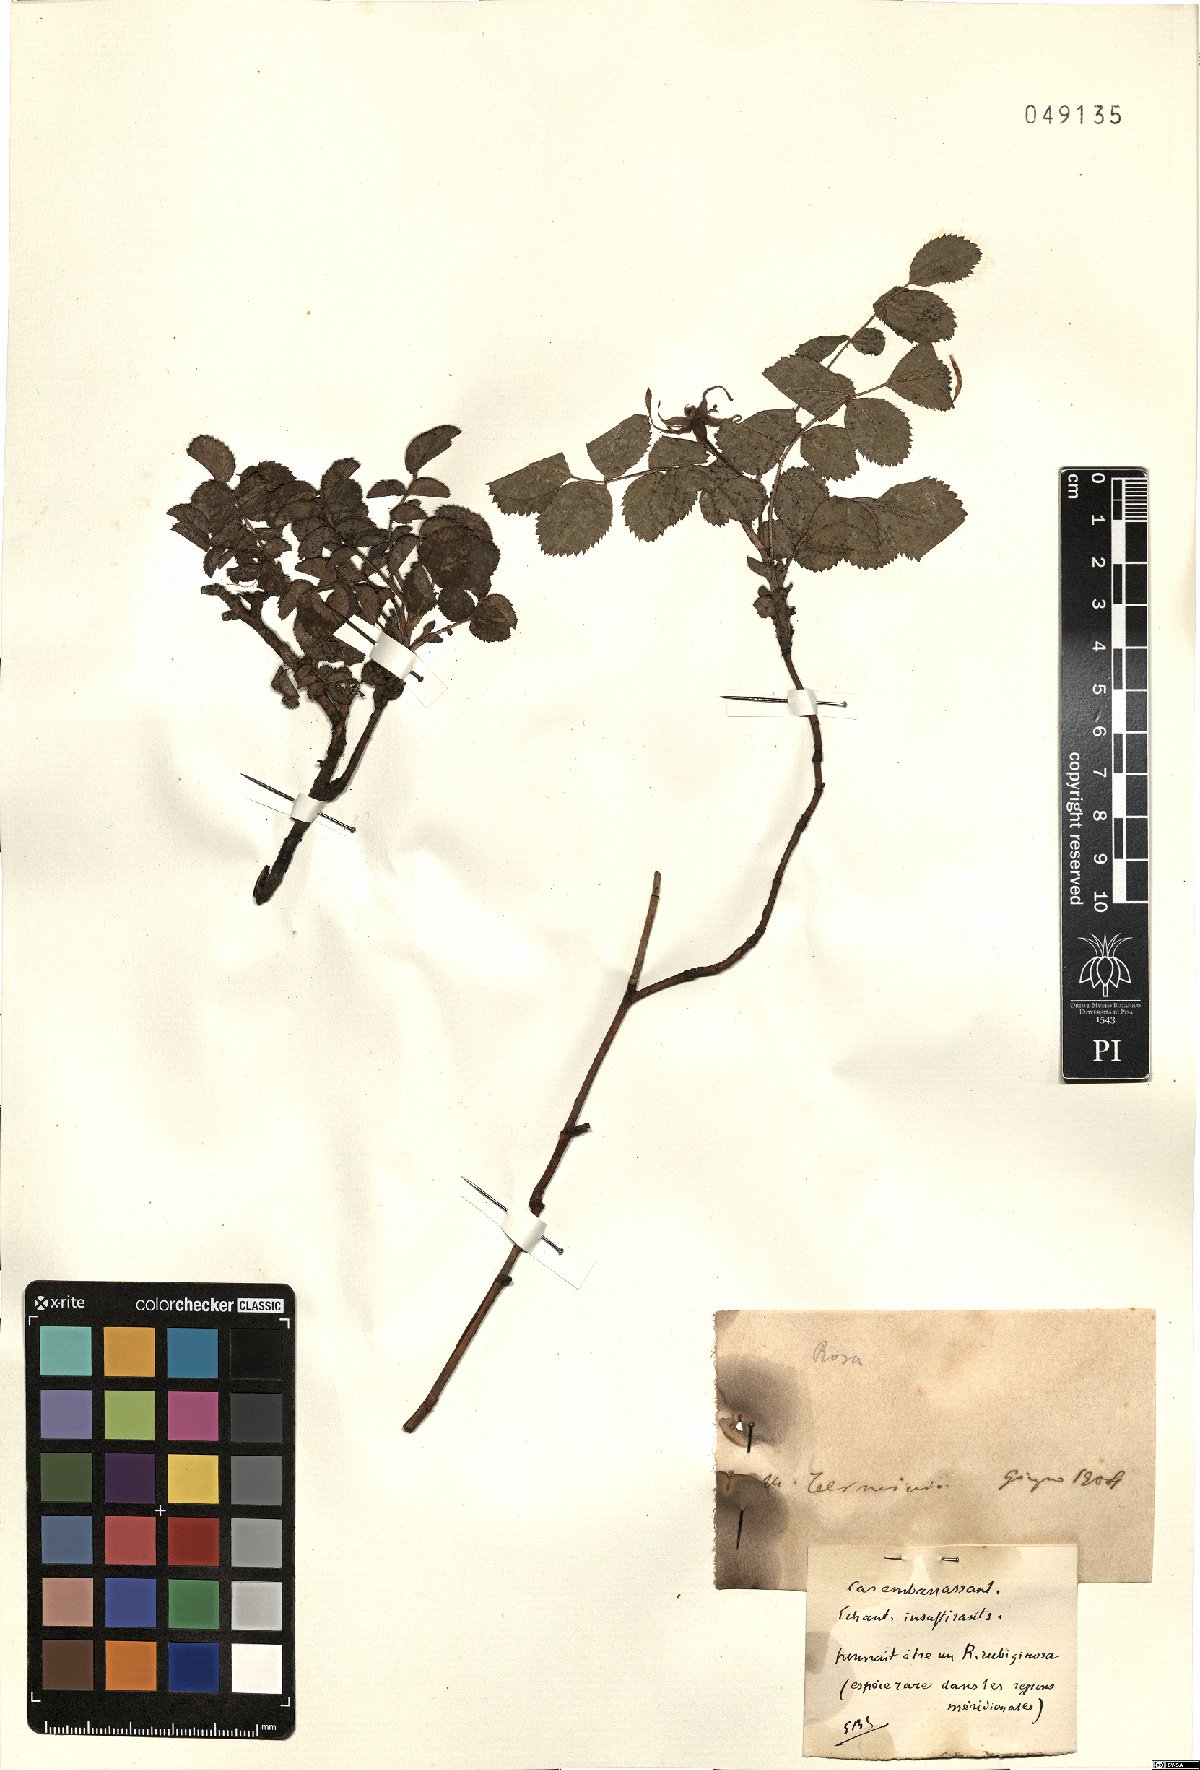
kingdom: Plantae
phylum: Tracheophyta
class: Magnoliopsida
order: Rosales
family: Rosaceae
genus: Rosa
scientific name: Rosa rubiginosa
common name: Sweet-briar
